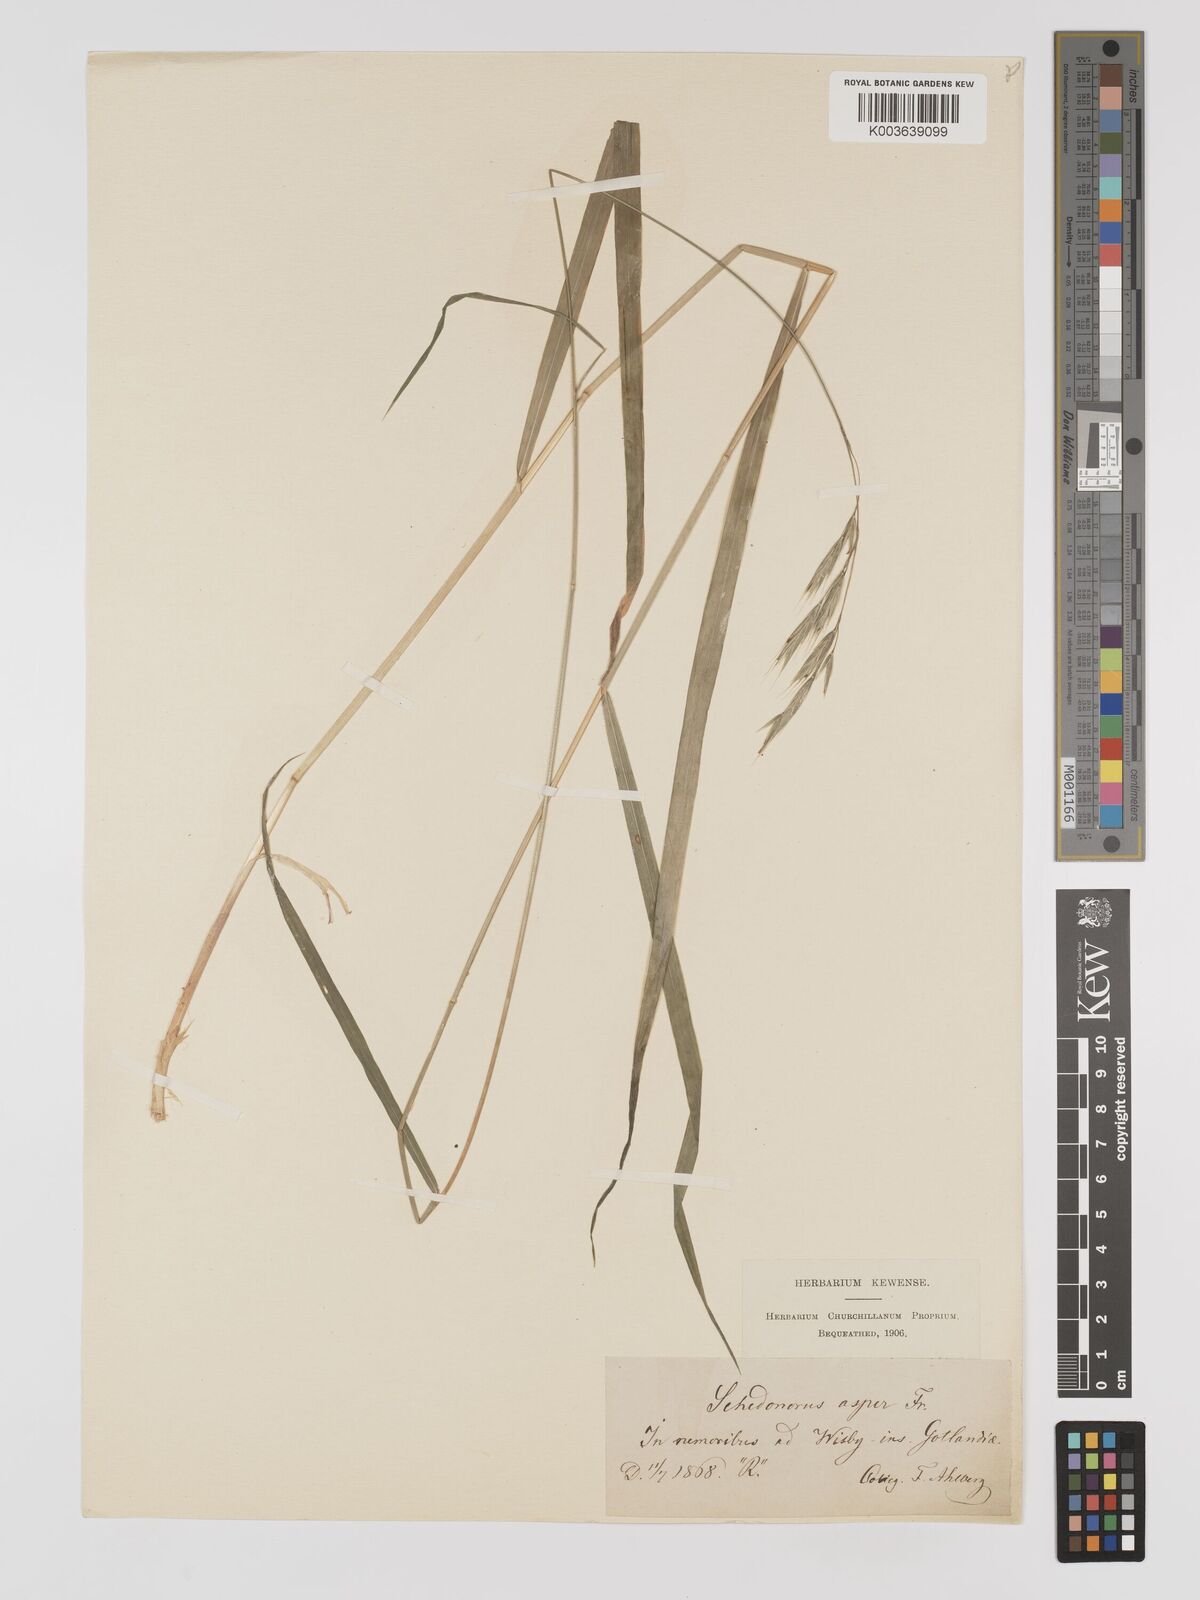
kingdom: Plantae
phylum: Tracheophyta
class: Liliopsida
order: Poales
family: Poaceae
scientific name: Poaceae
